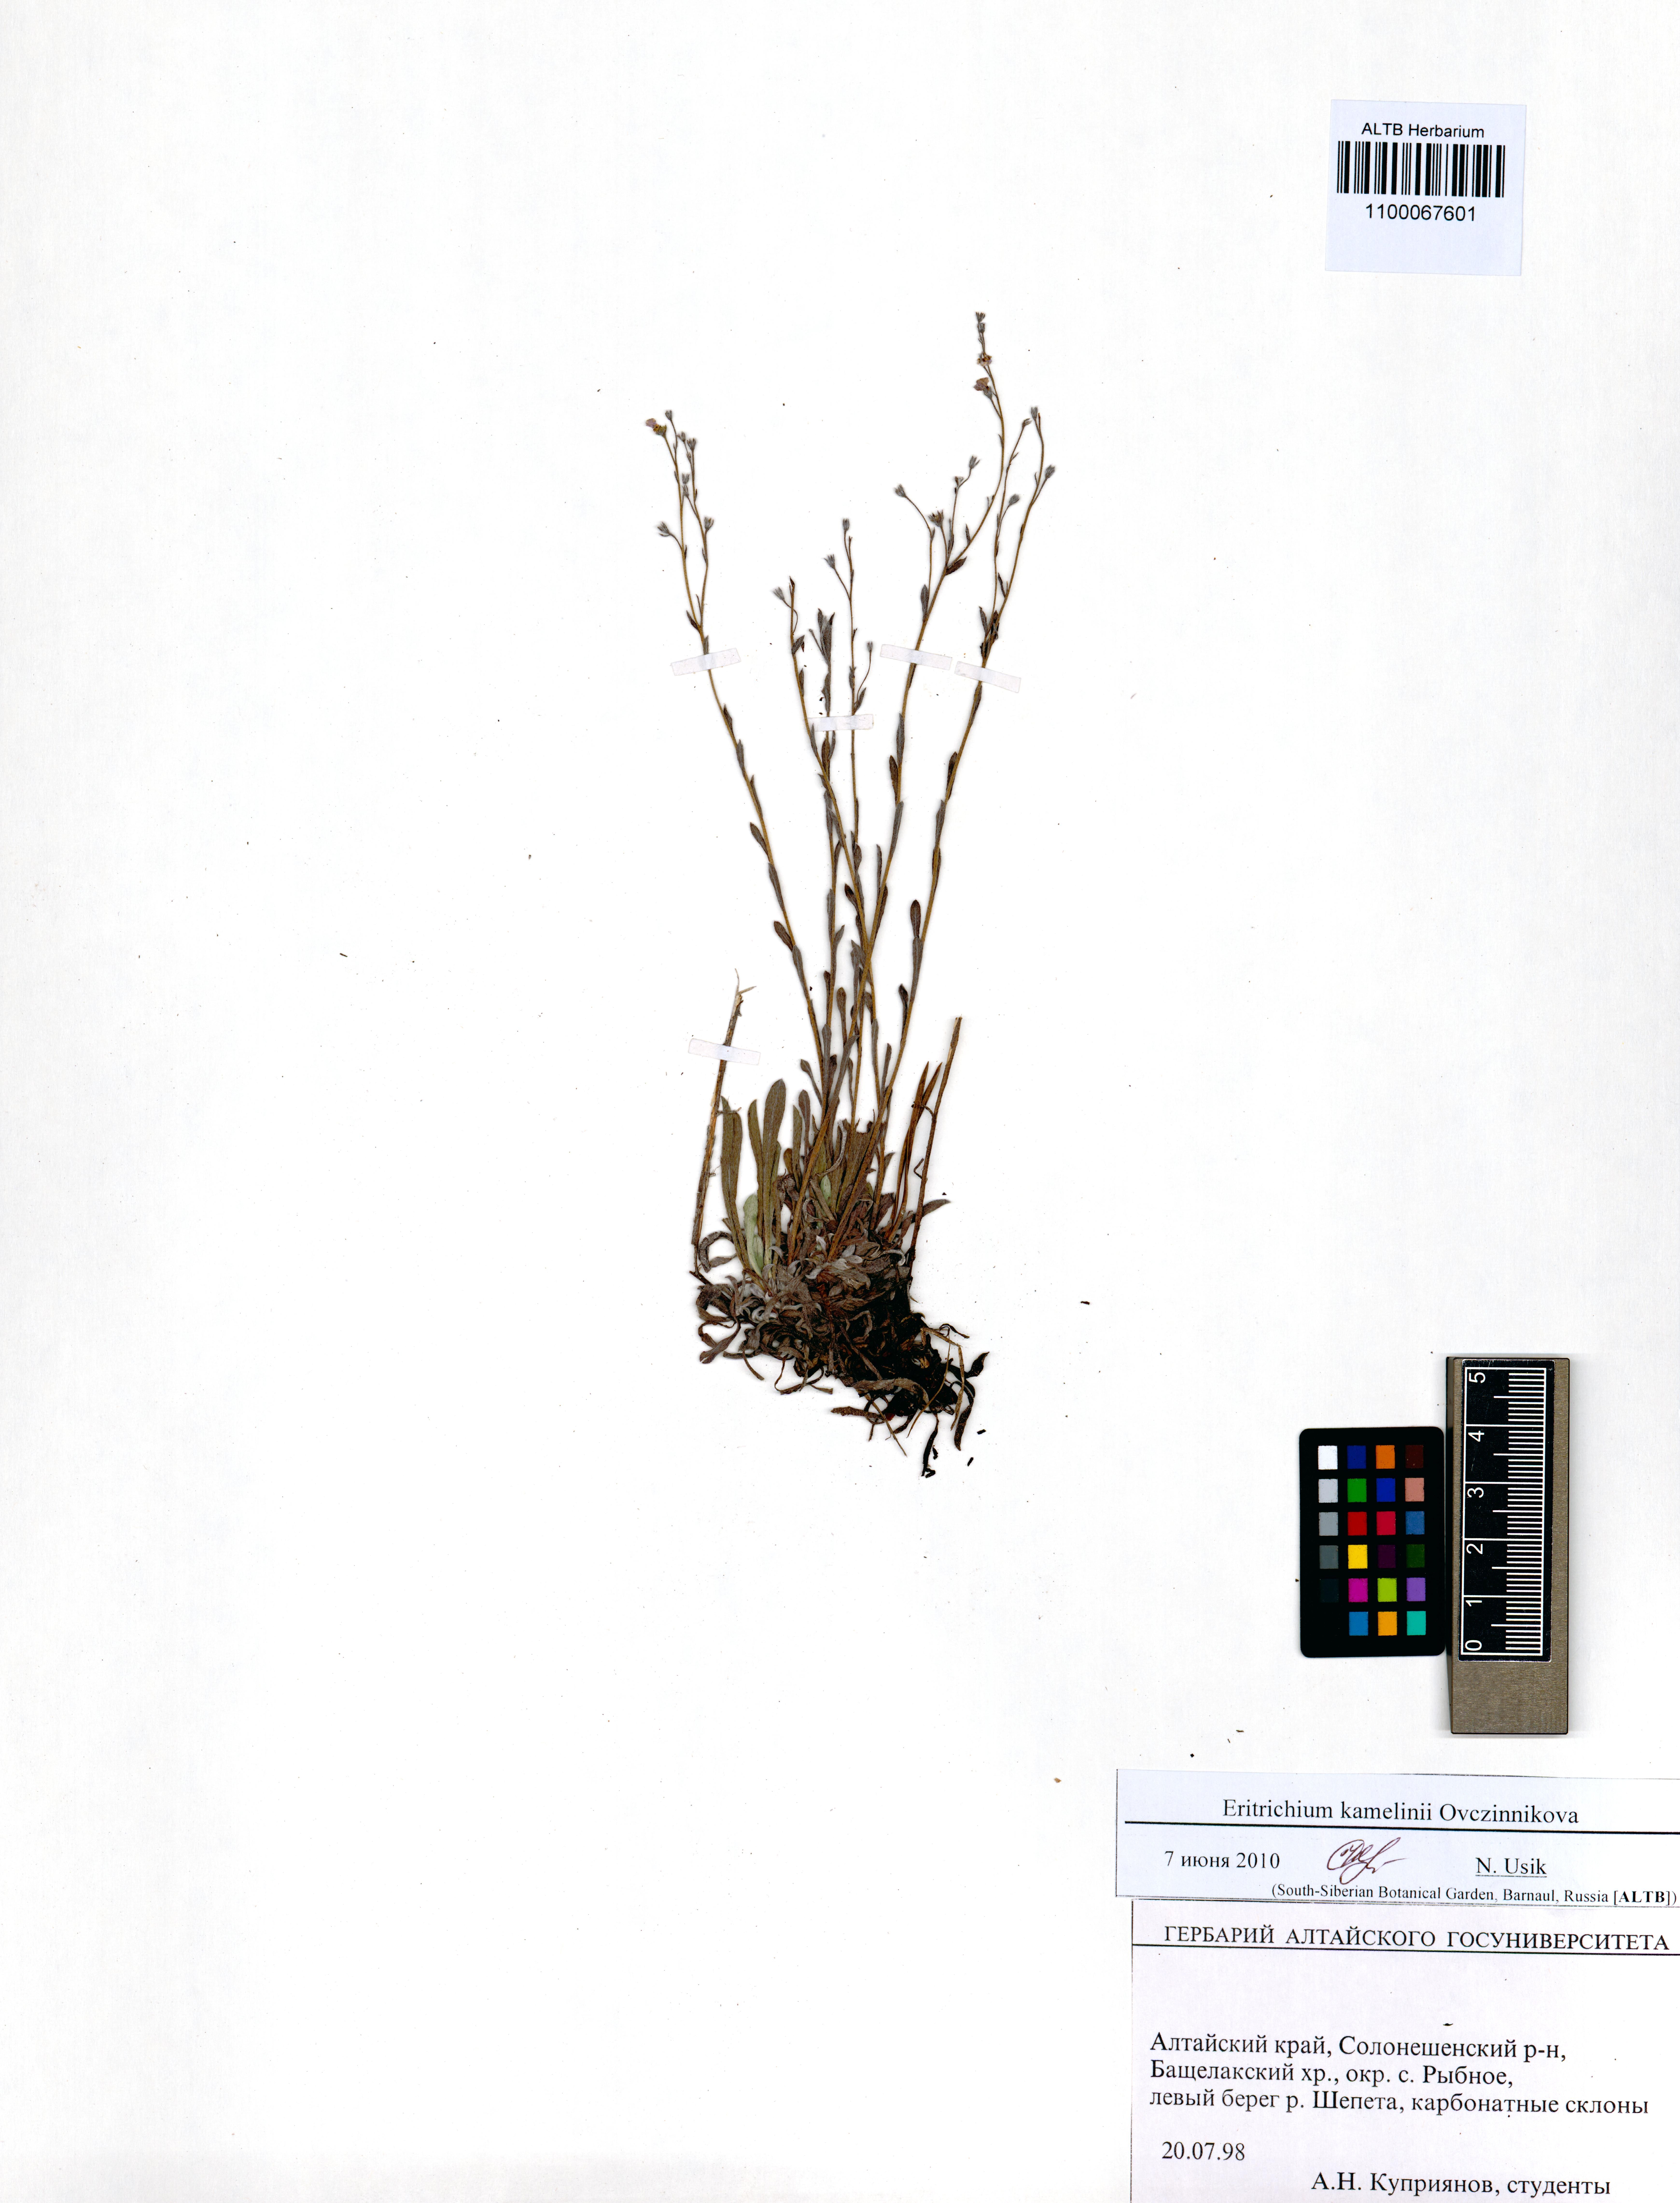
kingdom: Plantae
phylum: Tracheophyta
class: Magnoliopsida
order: Boraginales
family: Boraginaceae
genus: Eritrichium
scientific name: Eritrichium kamelinii
